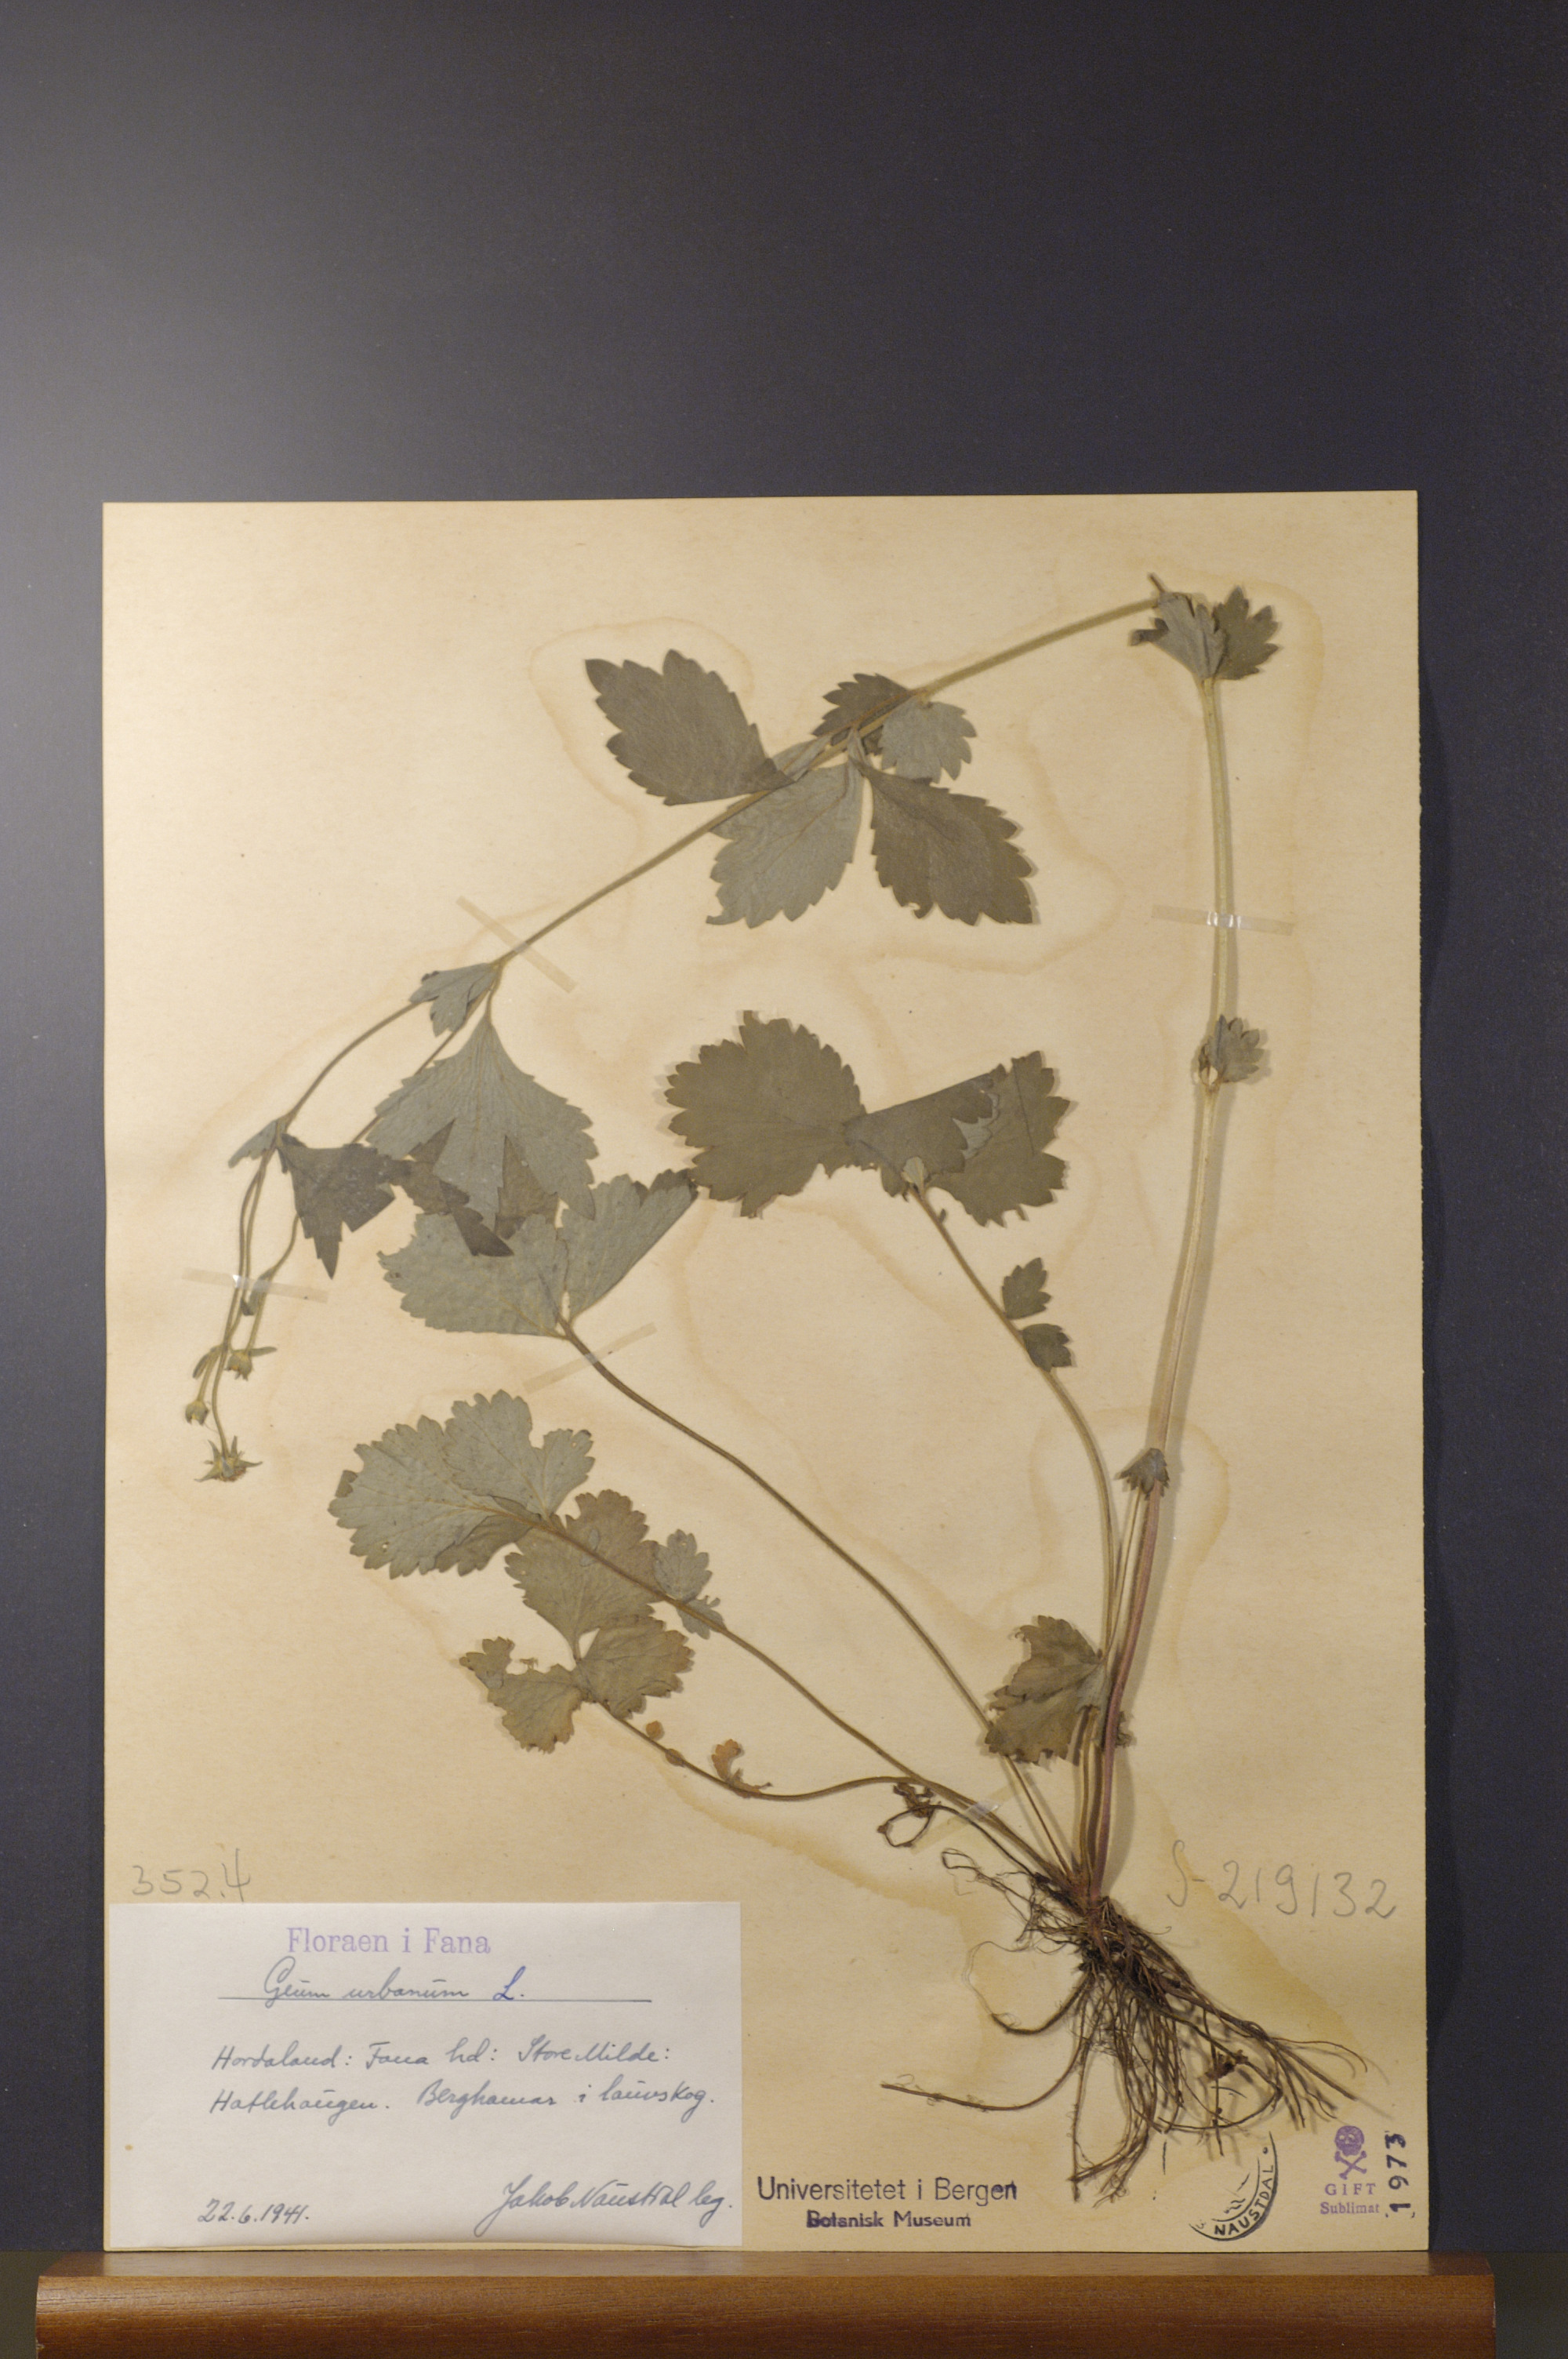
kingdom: Plantae
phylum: Tracheophyta
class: Magnoliopsida
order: Rosales
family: Rosaceae
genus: Geum
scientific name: Geum urbanum
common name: Wood avens
